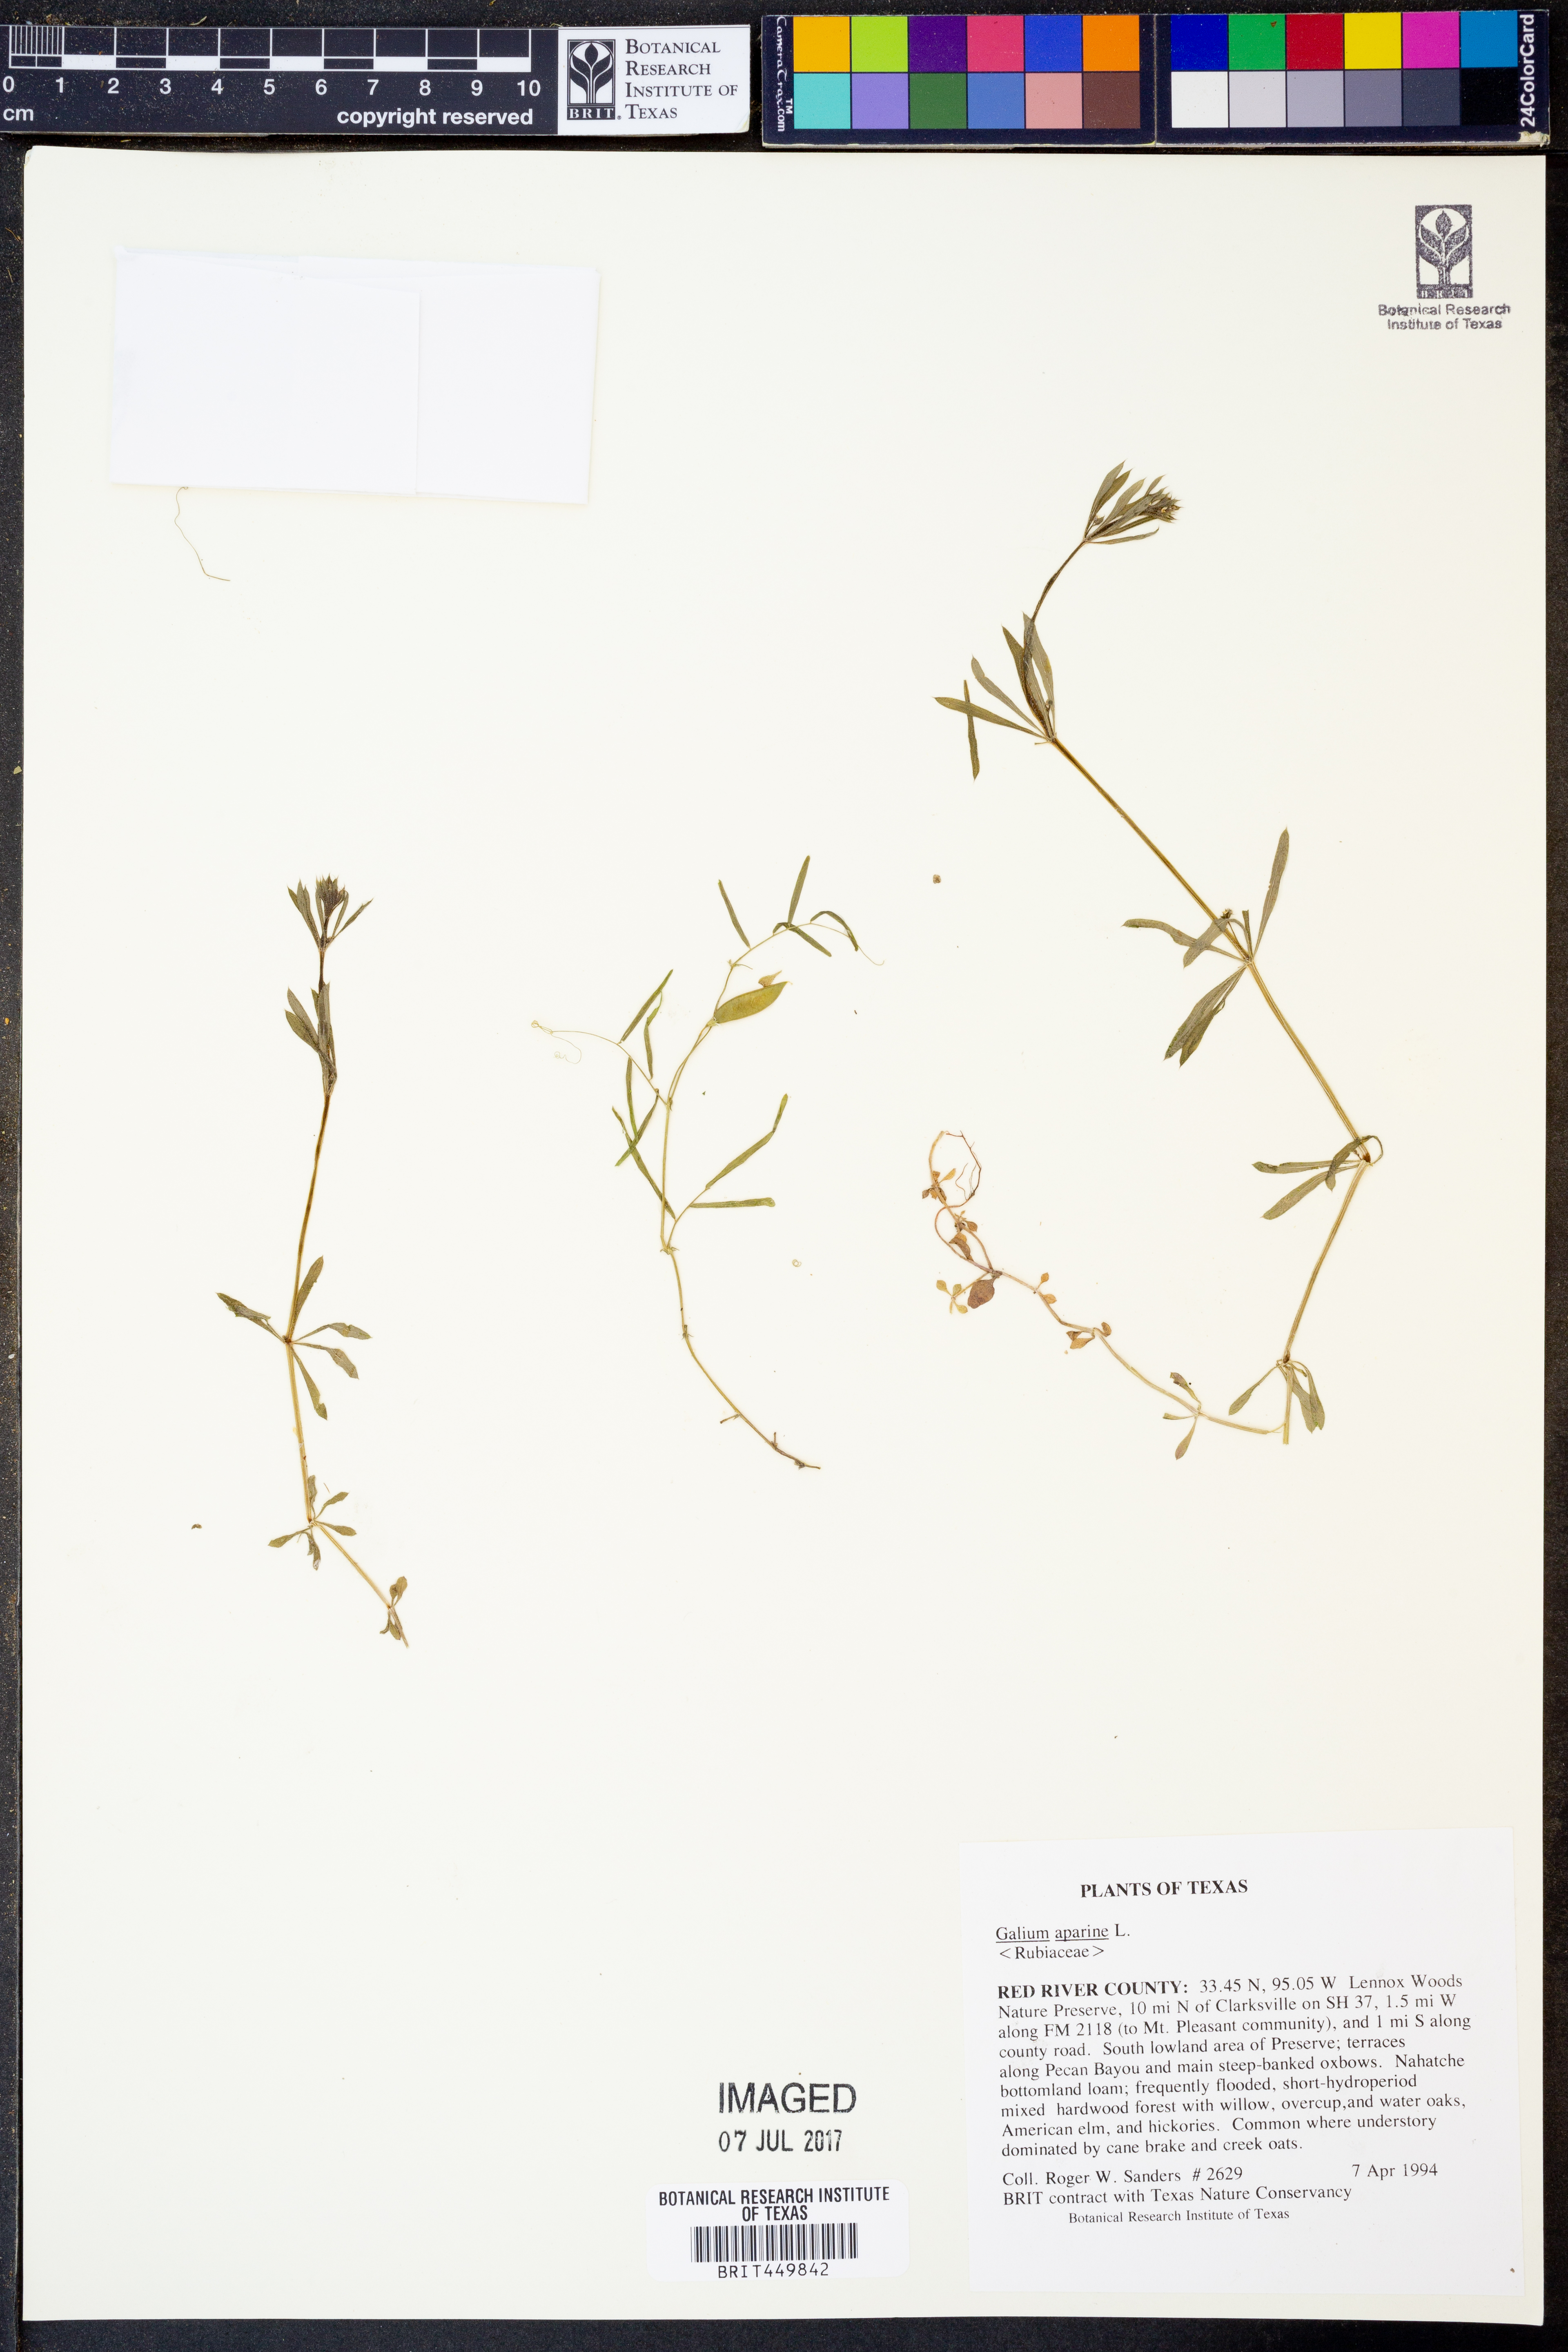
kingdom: Plantae
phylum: Tracheophyta
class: Magnoliopsida
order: Gentianales
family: Rubiaceae
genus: Galium
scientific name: Galium aparine
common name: Cleavers
